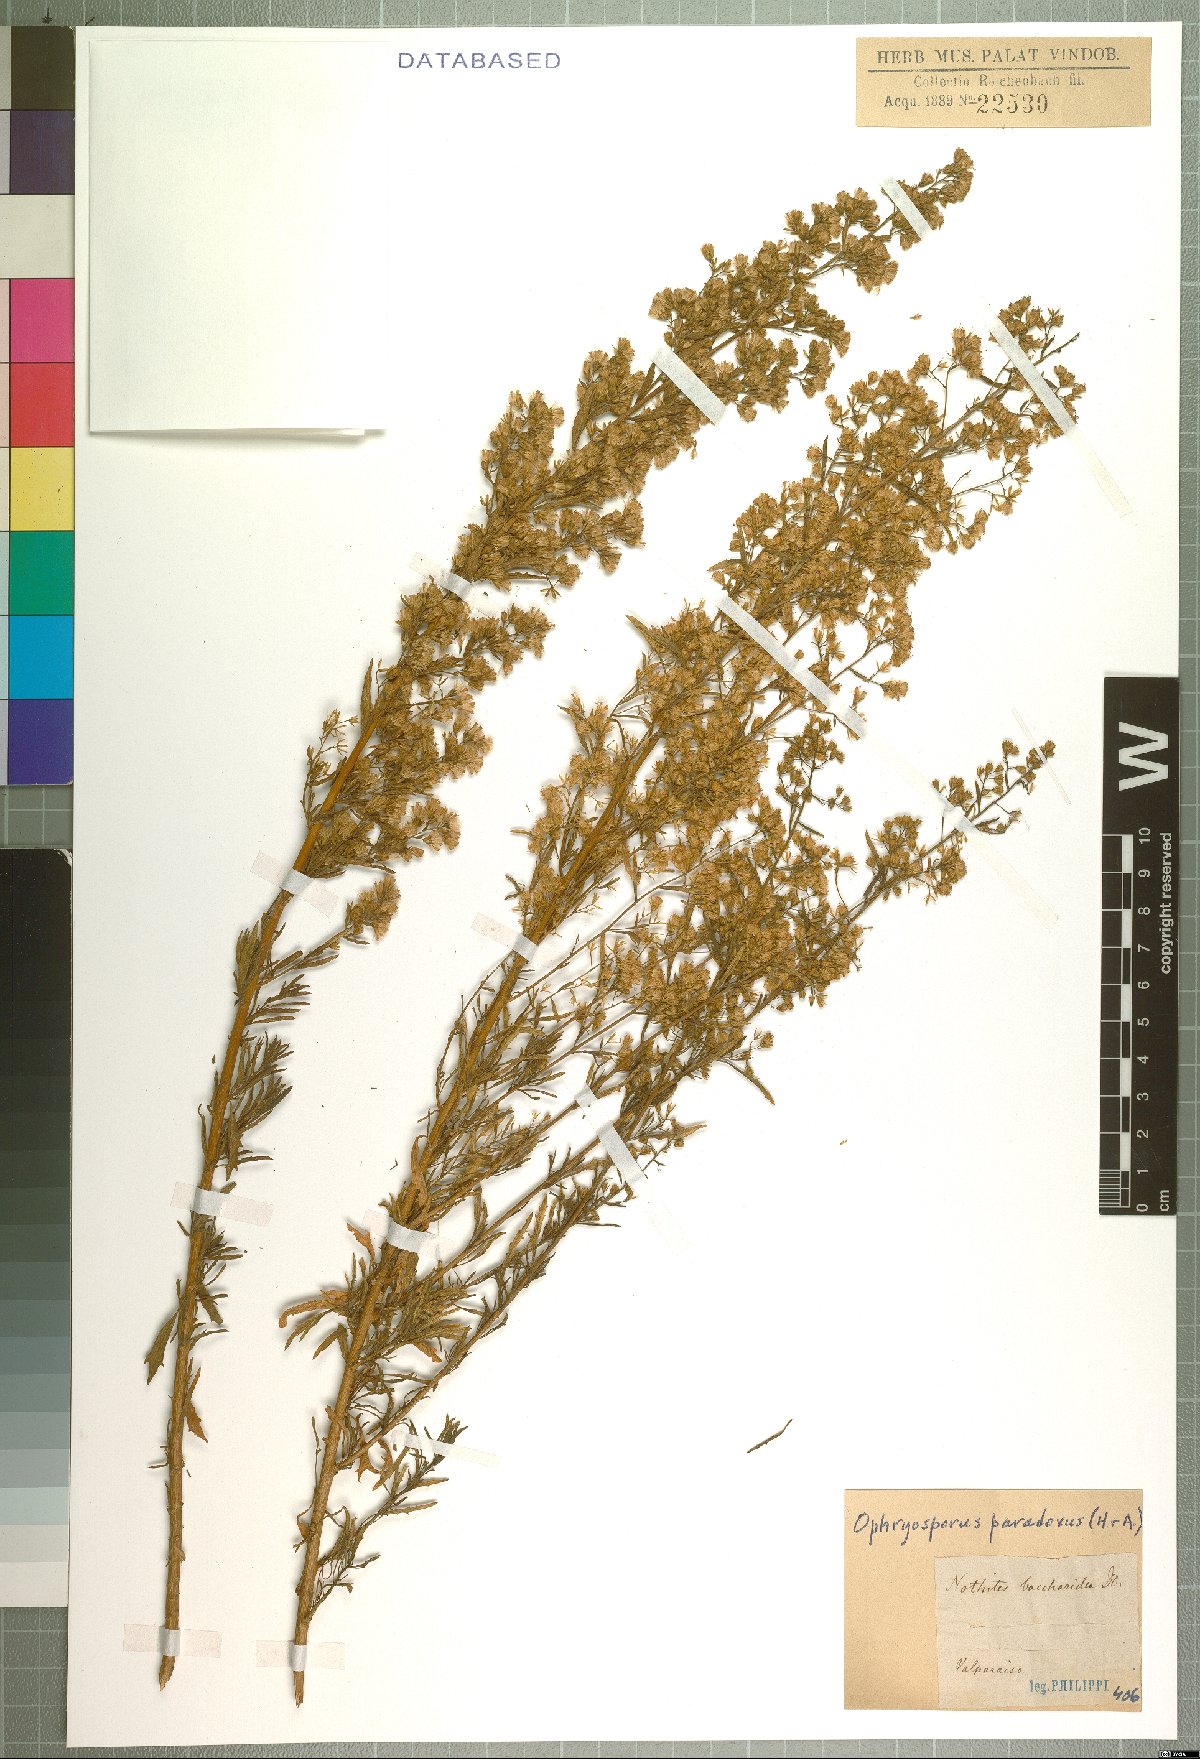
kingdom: Plantae
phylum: Tracheophyta
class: Magnoliopsida
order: Asterales
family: Asteraceae
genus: Ophryosporus
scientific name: Ophryosporus paradoxus
